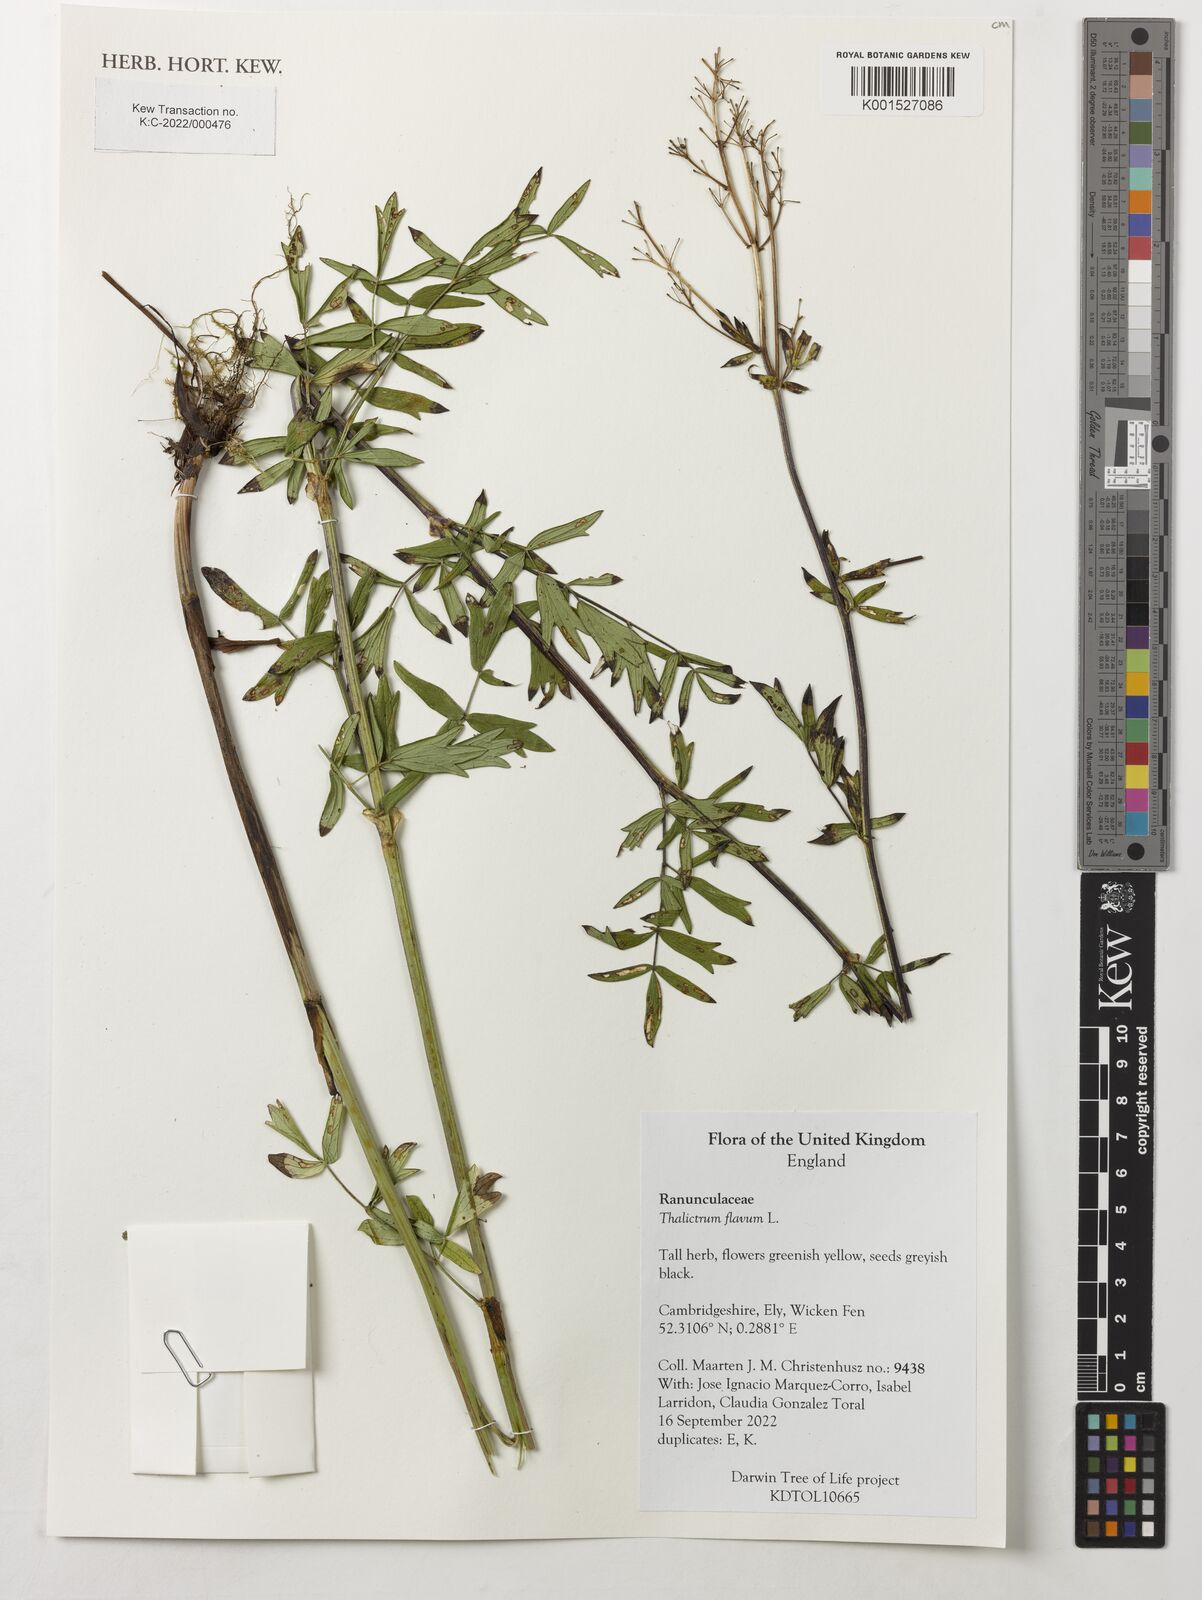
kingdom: Plantae
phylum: Tracheophyta
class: Magnoliopsida
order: Ranunculales
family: Ranunculaceae
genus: Thalictrum
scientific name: Thalictrum flavum
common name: Common meadow-rue
